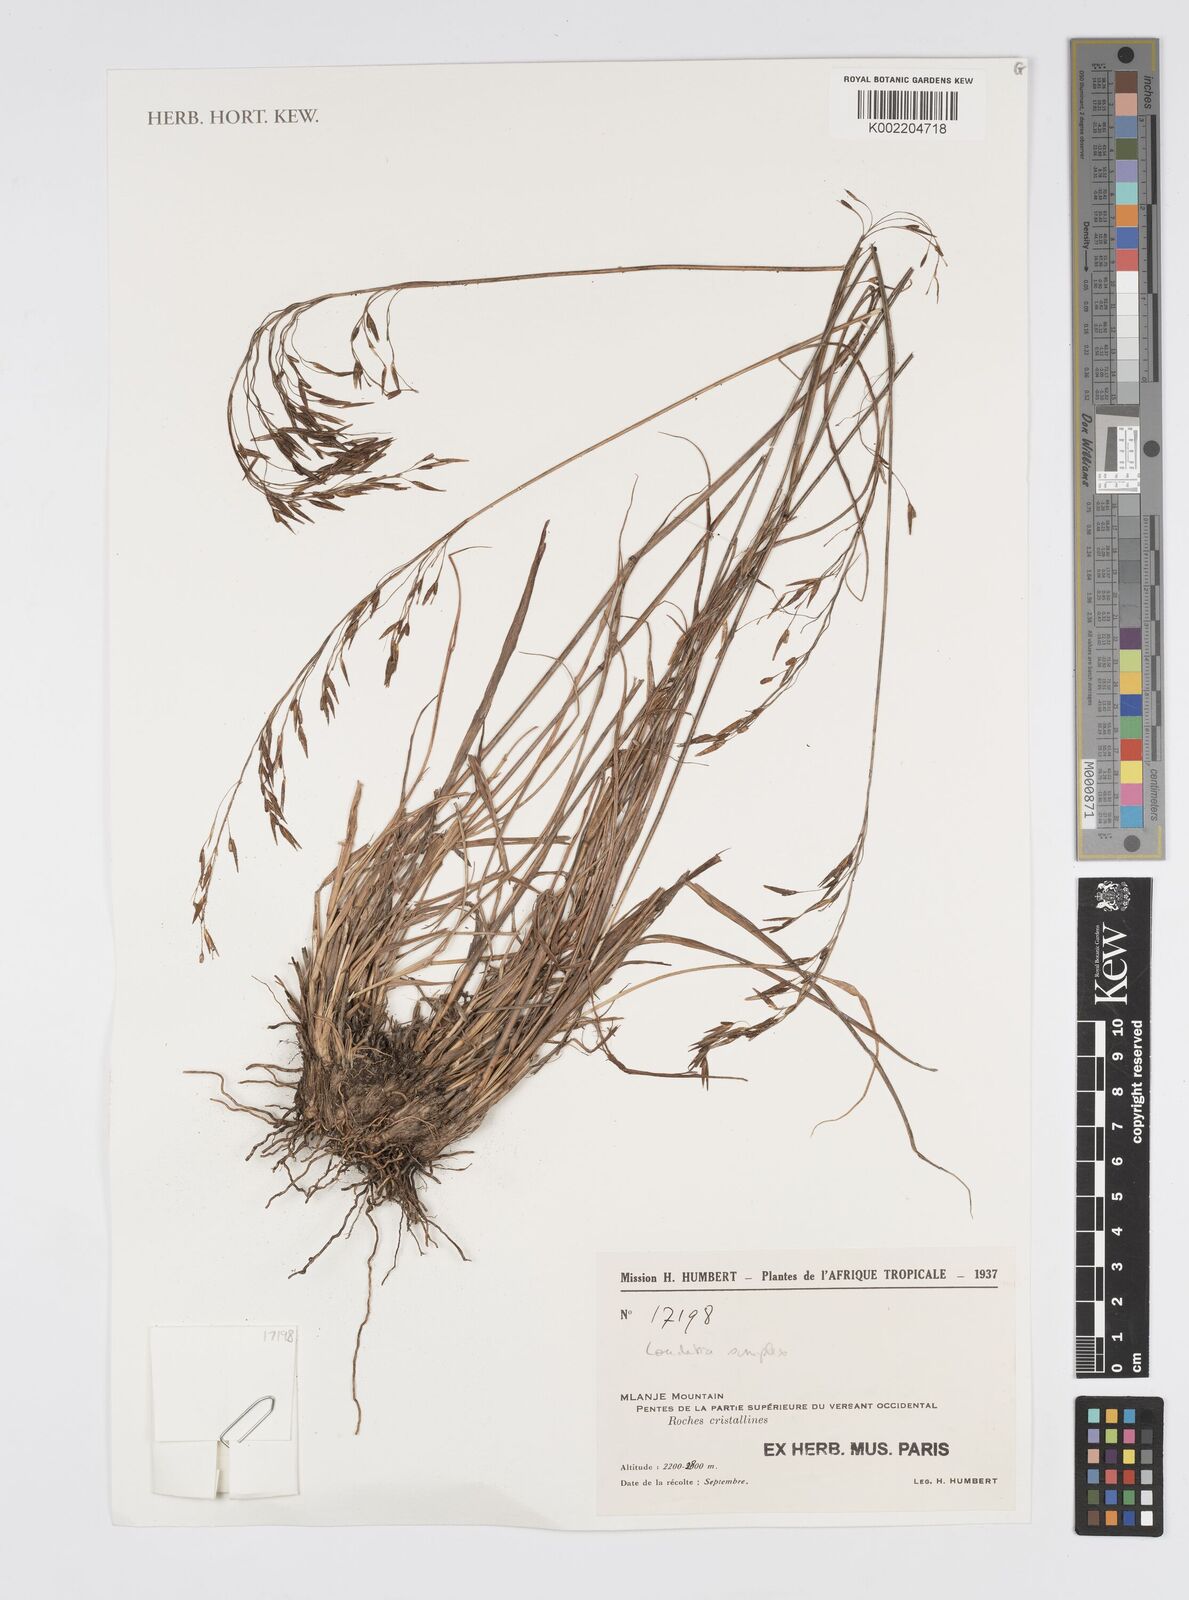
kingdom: Plantae
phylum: Tracheophyta
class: Liliopsida
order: Poales
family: Poaceae
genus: Loudetia
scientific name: Loudetia simplex
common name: Common russet grass
